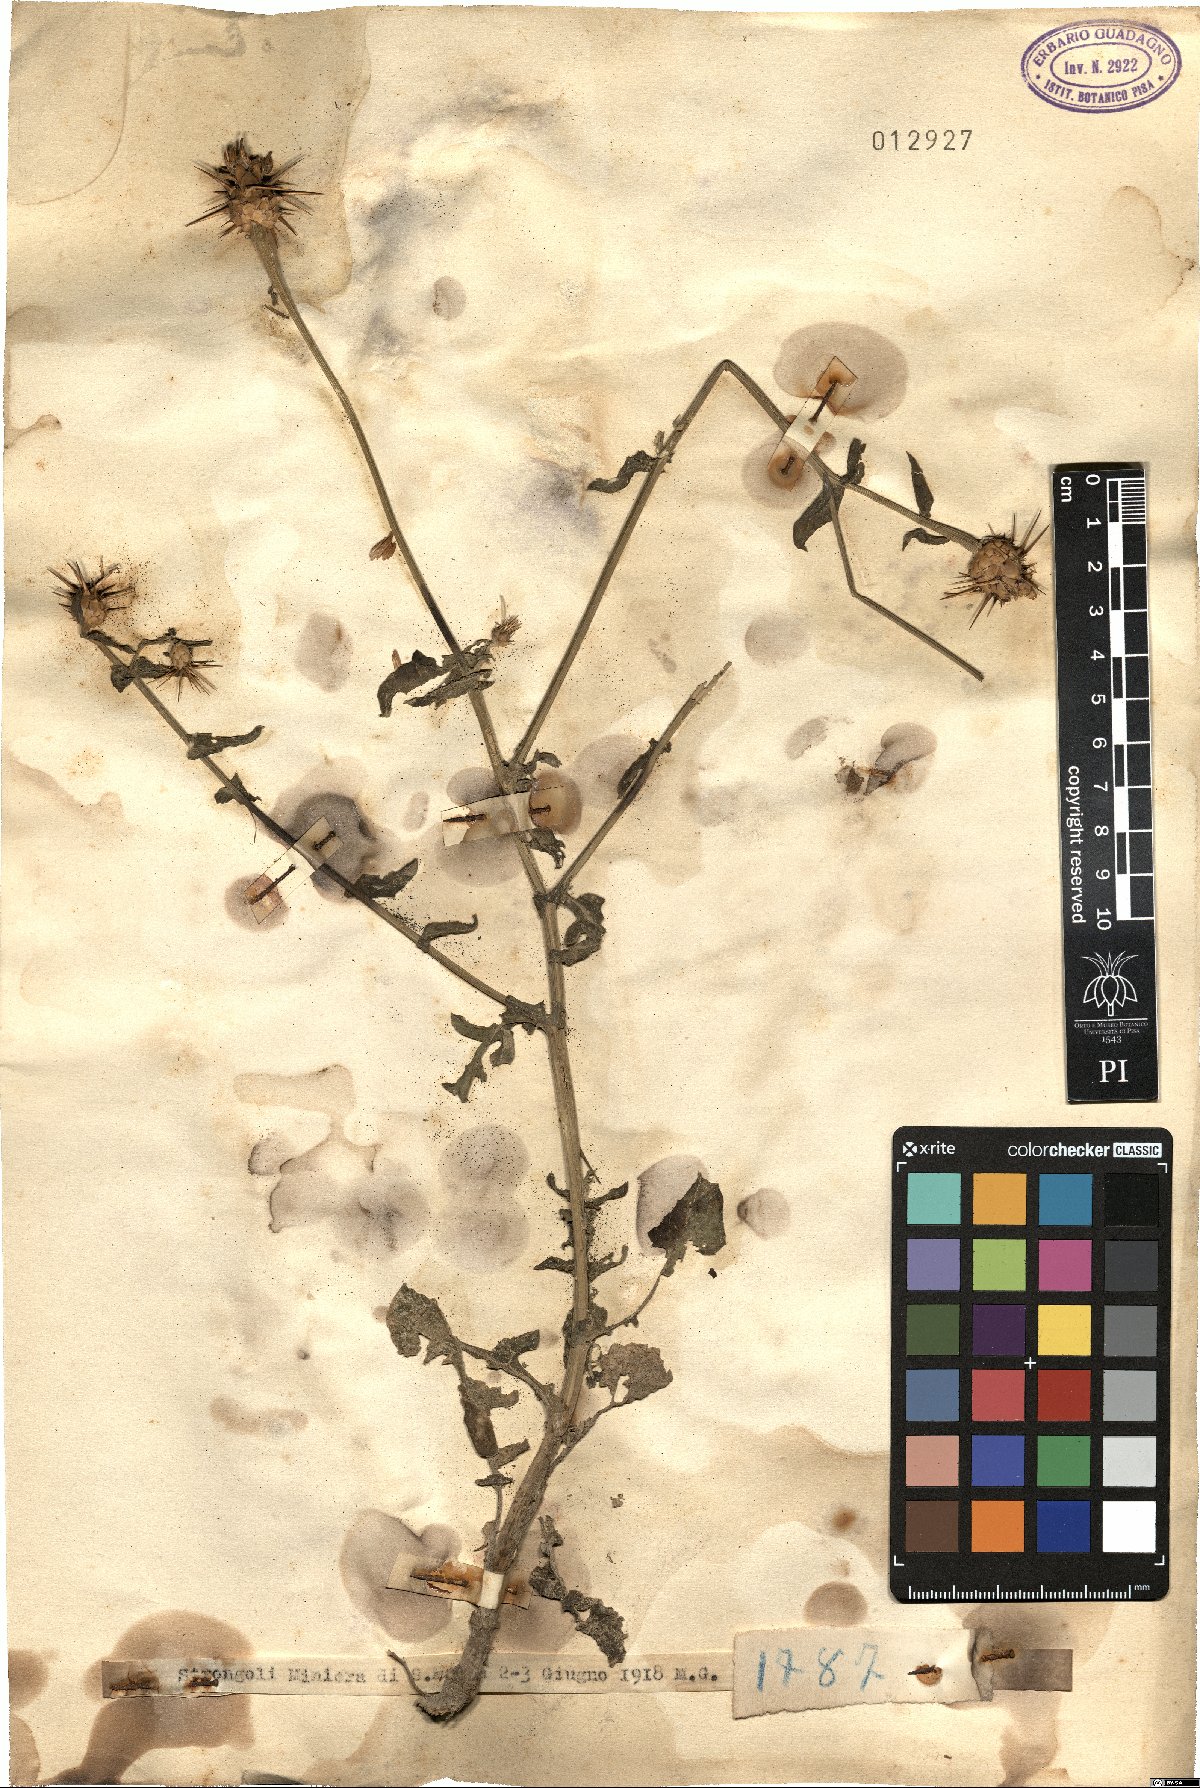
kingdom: Plantae
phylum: Tracheophyta
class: Magnoliopsida
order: Asterales
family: Asteraceae
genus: Centaurea
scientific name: Centaurea
